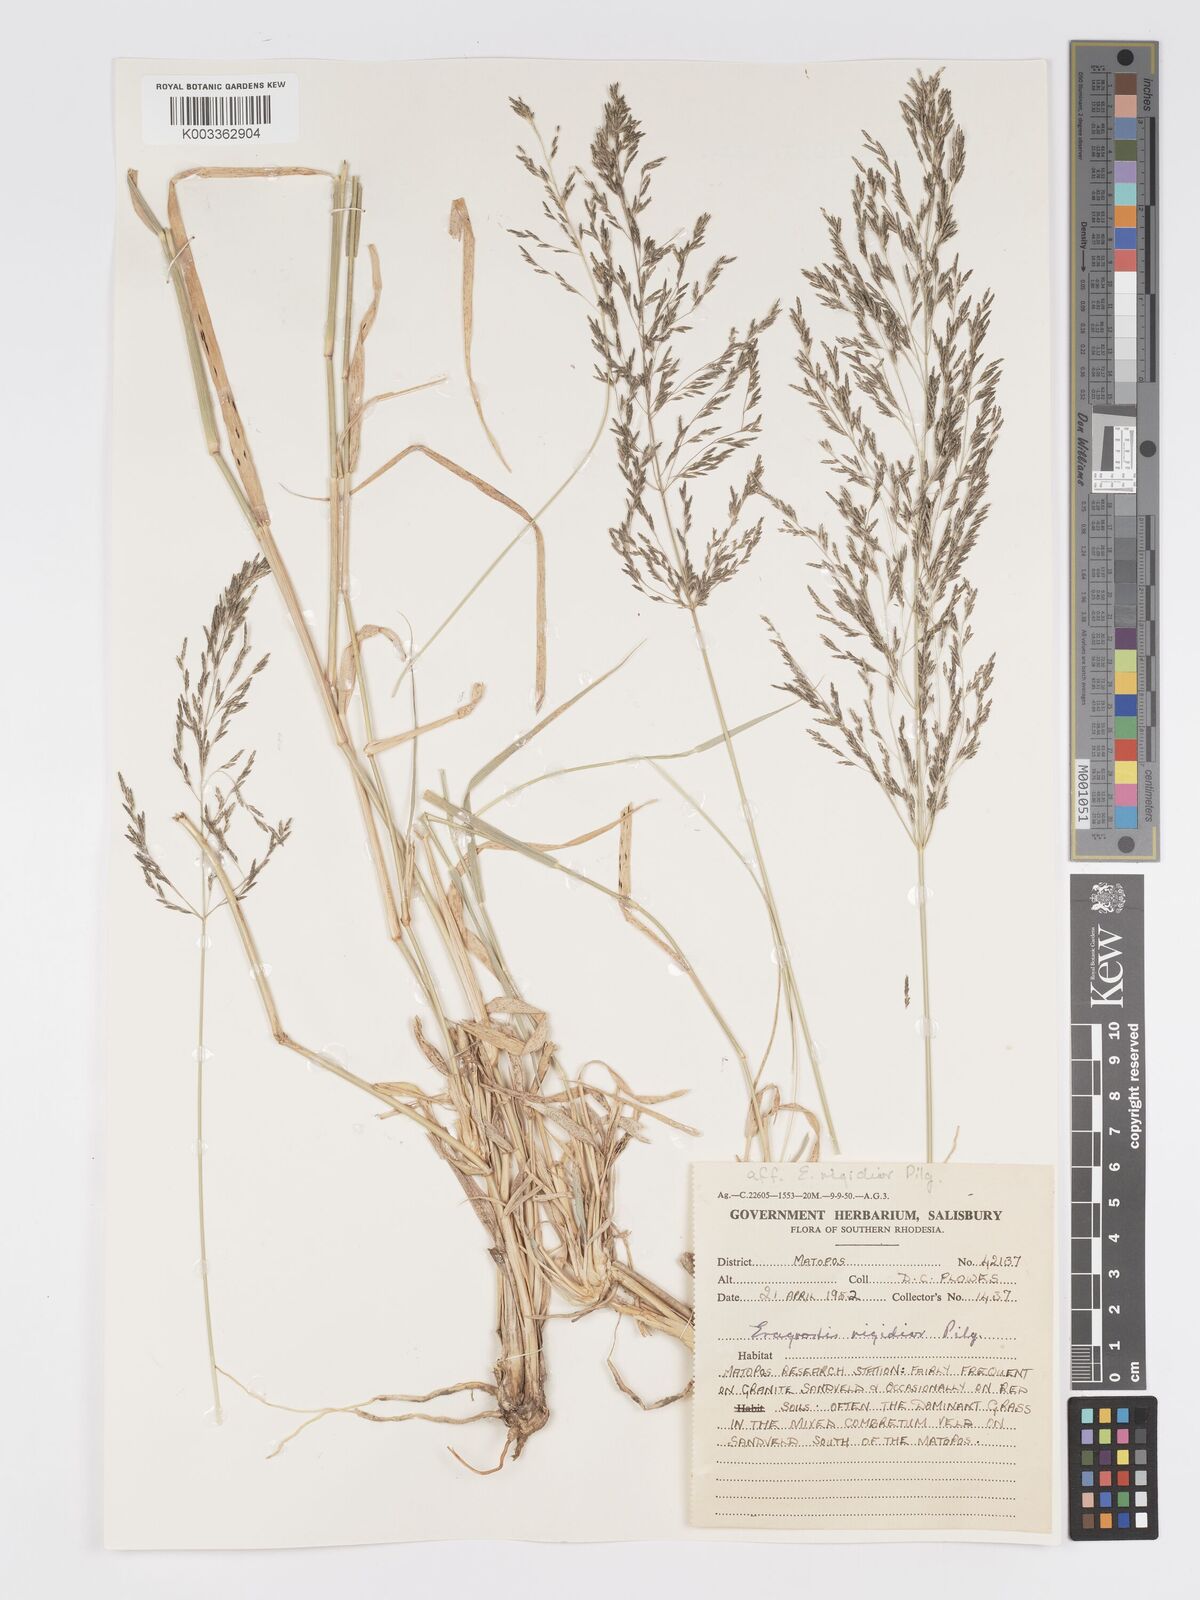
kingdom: Plantae
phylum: Tracheophyta
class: Liliopsida
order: Poales
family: Poaceae
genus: Eragrostis
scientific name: Eragrostis cylindriflora
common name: Cylinderflower lovegrass
